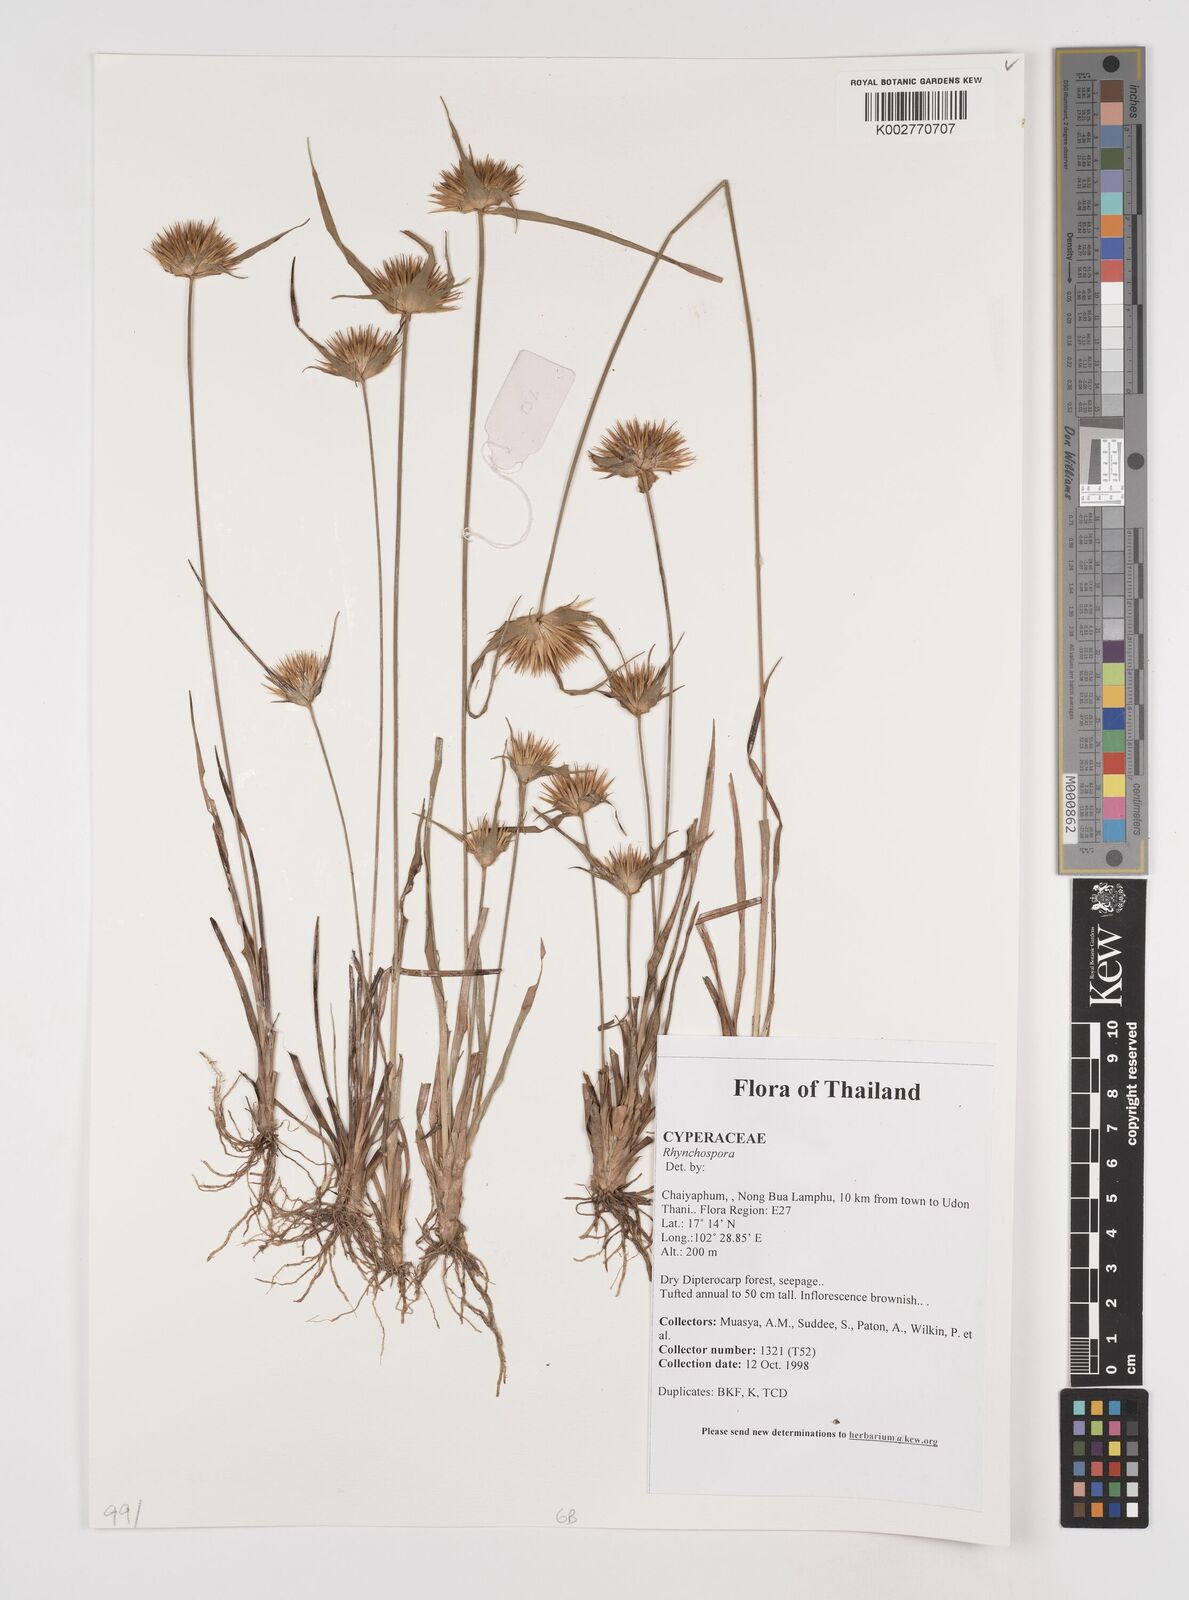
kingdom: Plantae
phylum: Tracheophyta
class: Liliopsida
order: Poales
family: Cyperaceae
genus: Rhynchospora
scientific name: Rhynchospora
